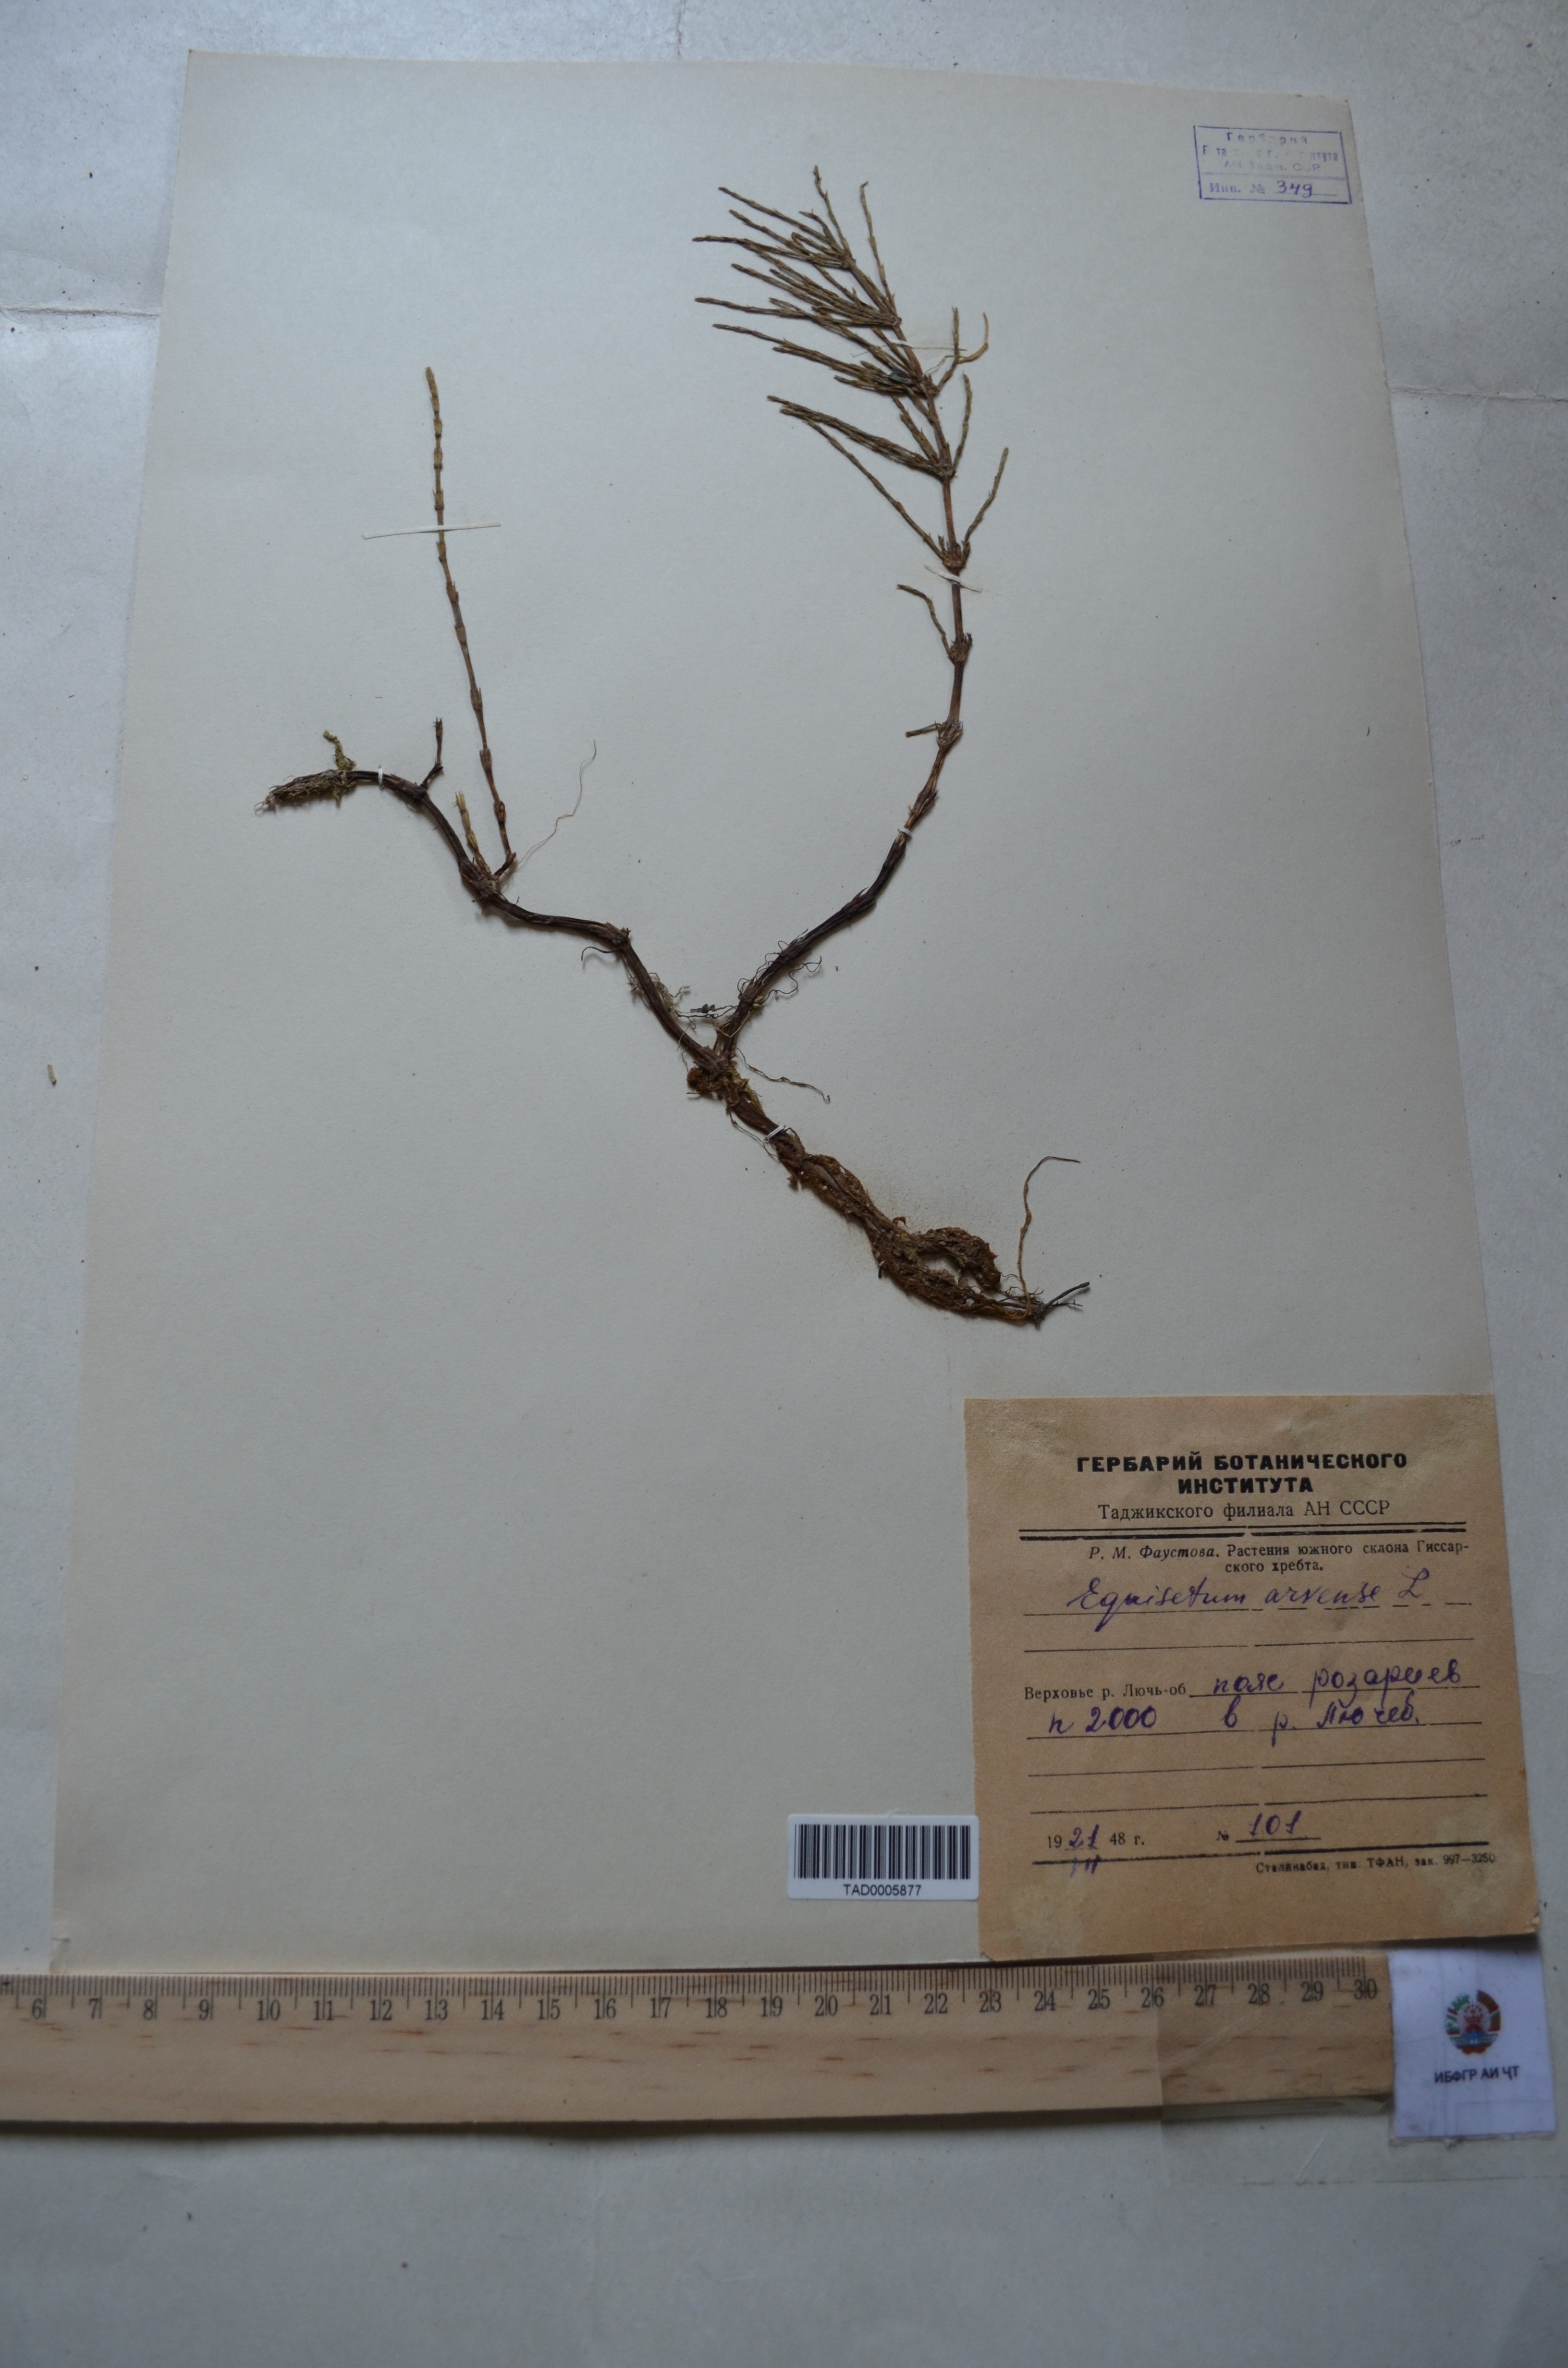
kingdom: Plantae
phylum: Tracheophyta
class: Polypodiopsida
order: Equisetales
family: Equisetaceae
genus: Equisetum
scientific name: Equisetum arvense
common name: Field horsetail
